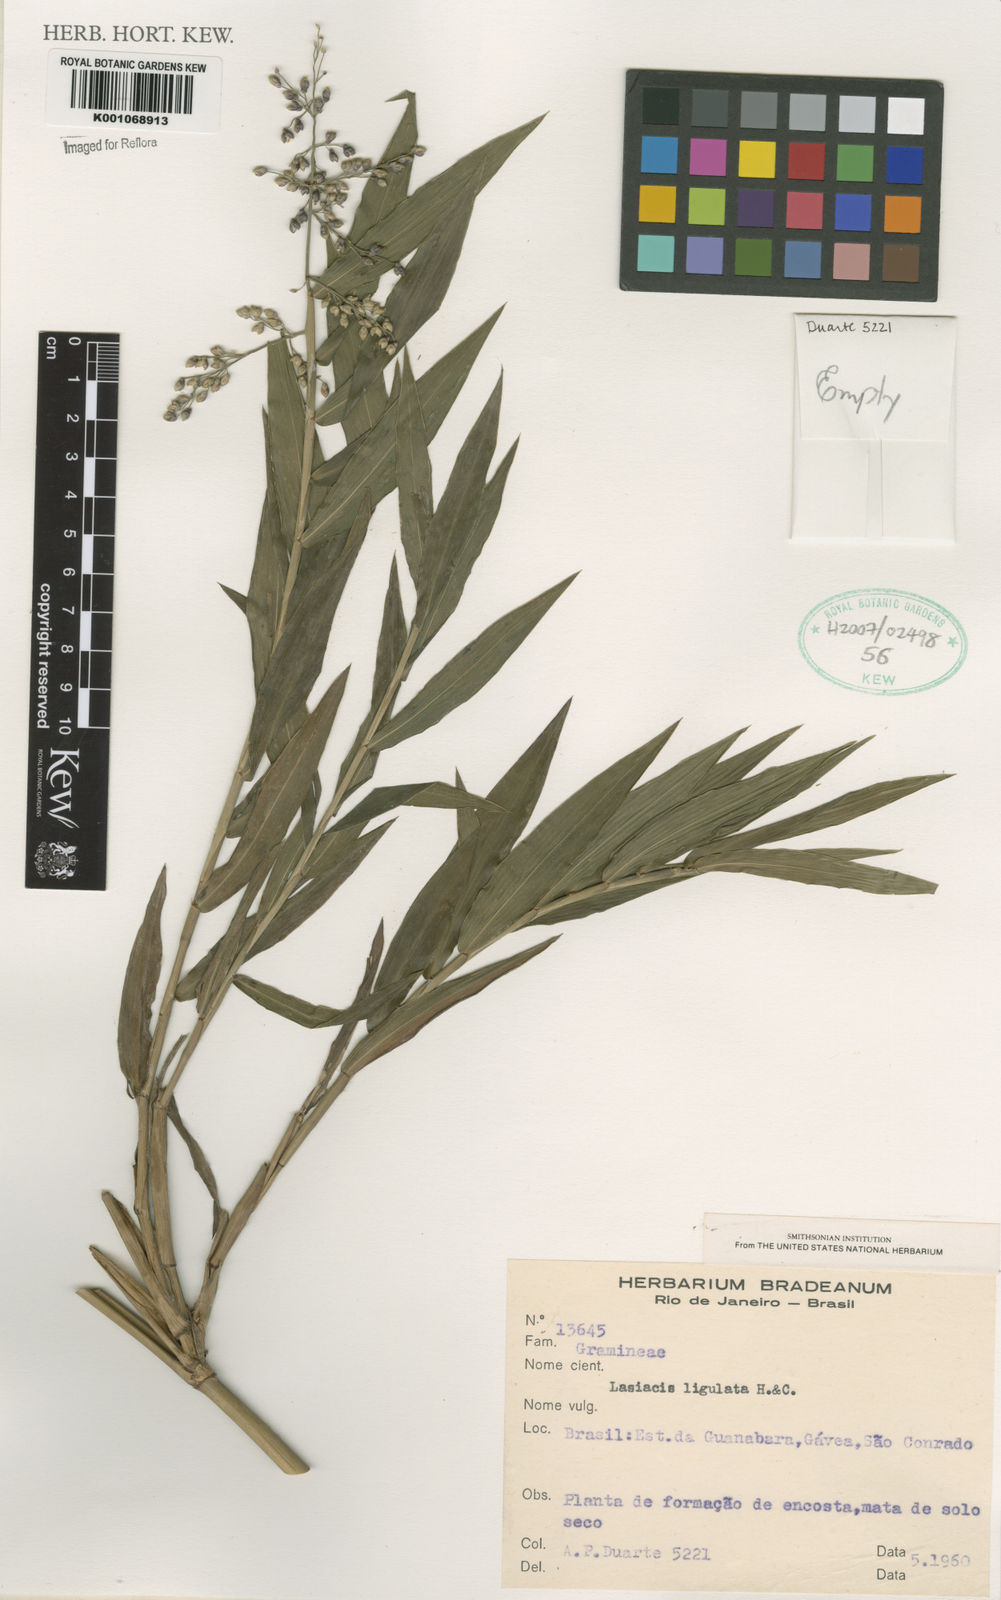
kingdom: Plantae
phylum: Tracheophyta
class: Liliopsida
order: Poales
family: Poaceae
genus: Lasiacis
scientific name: Lasiacis ligulata
